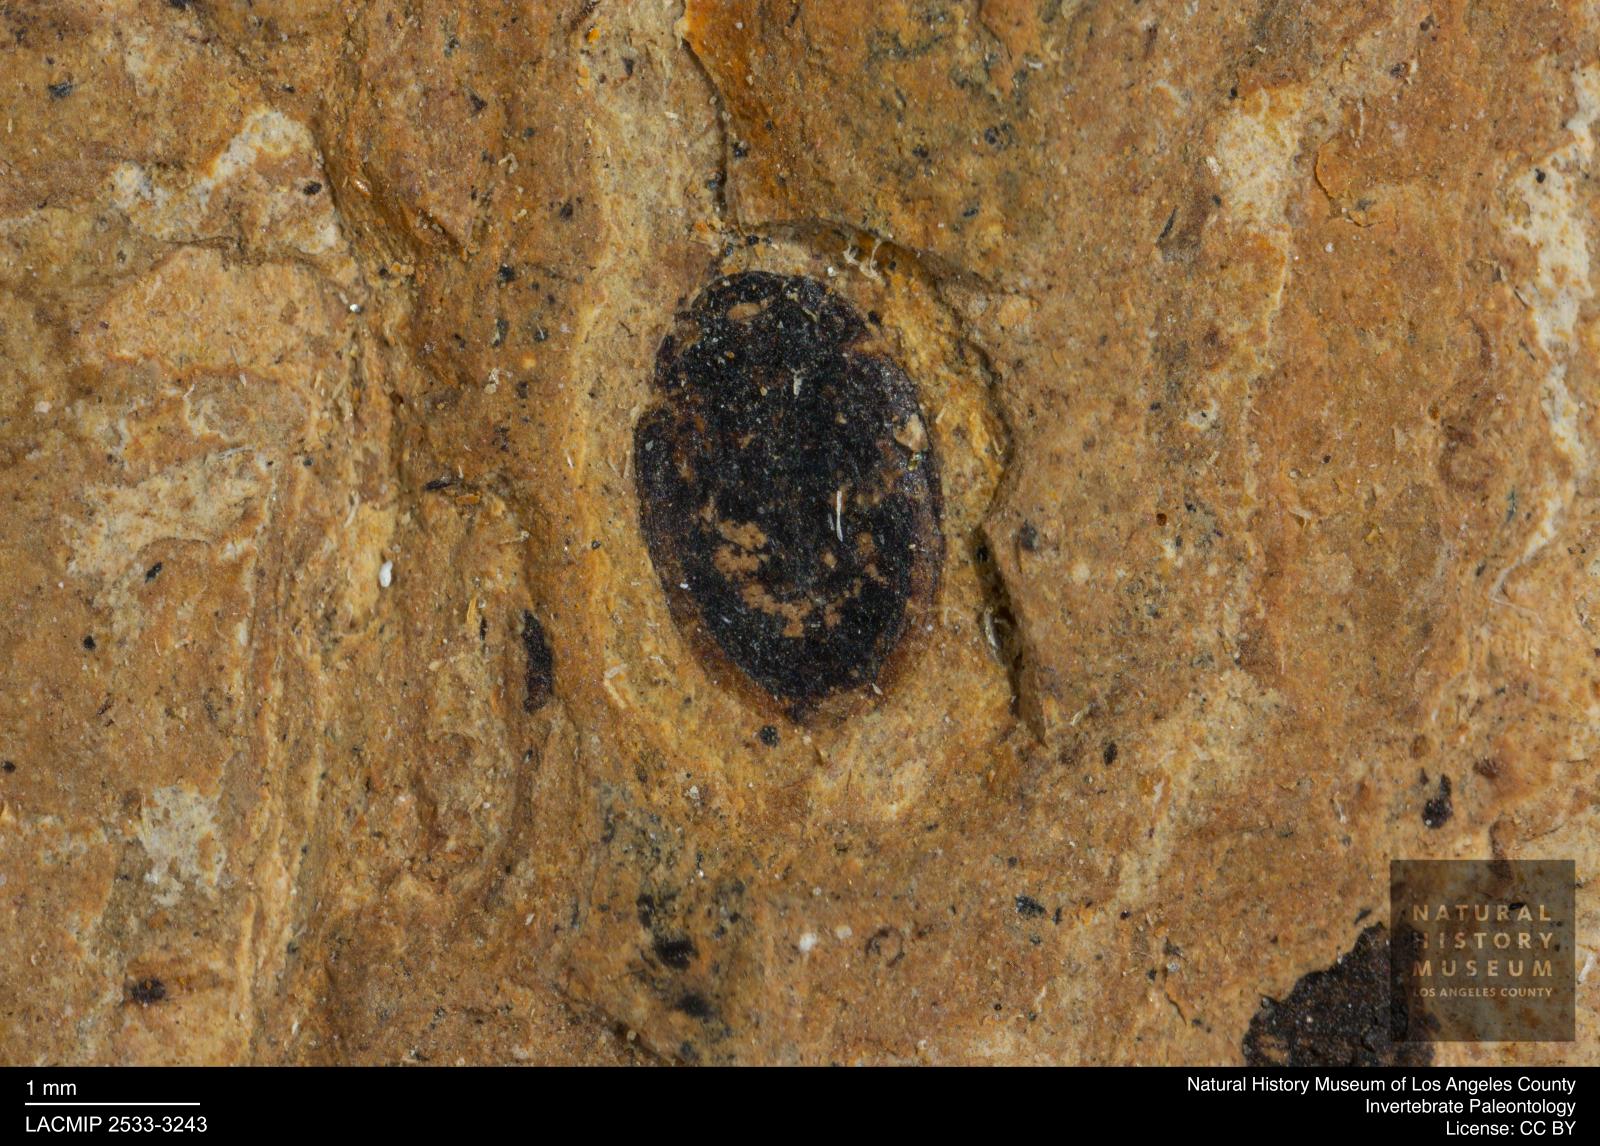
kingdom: Animalia
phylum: Arthropoda
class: Insecta
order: Coleoptera
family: Hydrophilidae
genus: Paracymus
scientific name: Paracymus excitatus
